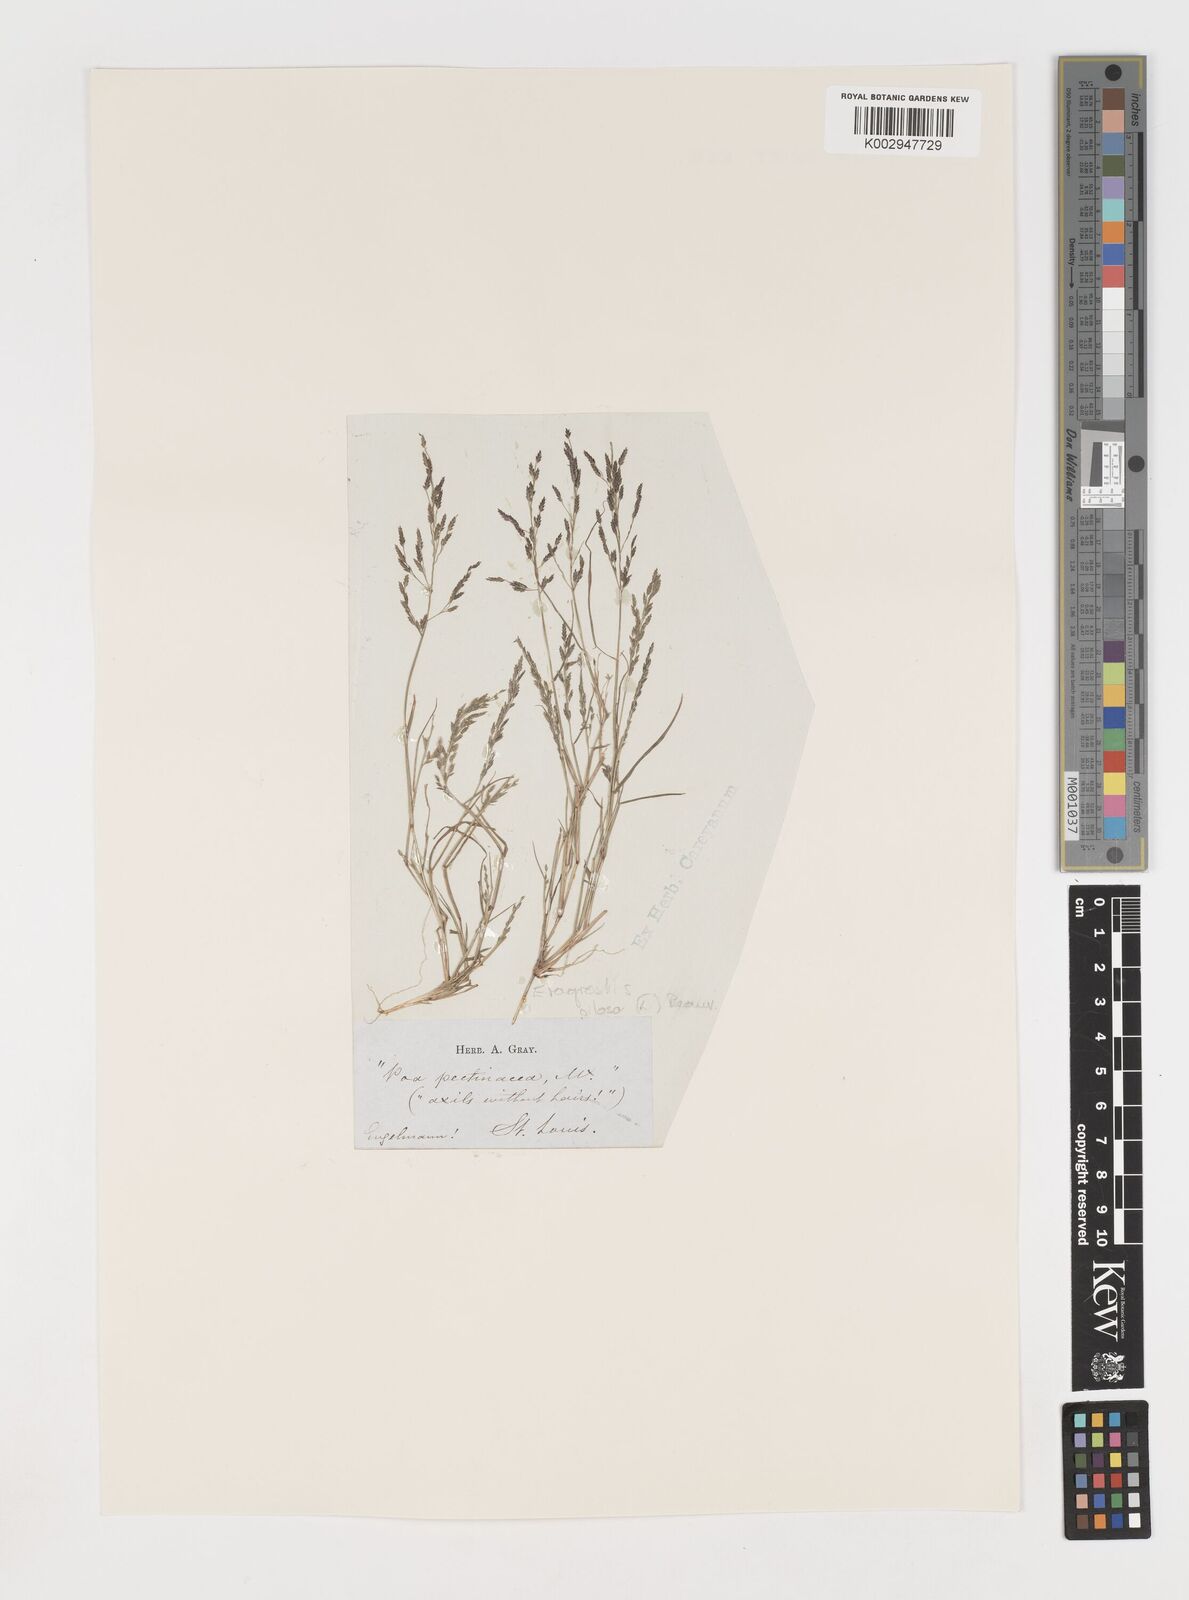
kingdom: Plantae
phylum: Tracheophyta
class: Liliopsida
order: Poales
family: Poaceae
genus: Eragrostis
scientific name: Eragrostis pilosa
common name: Indian lovegrass
